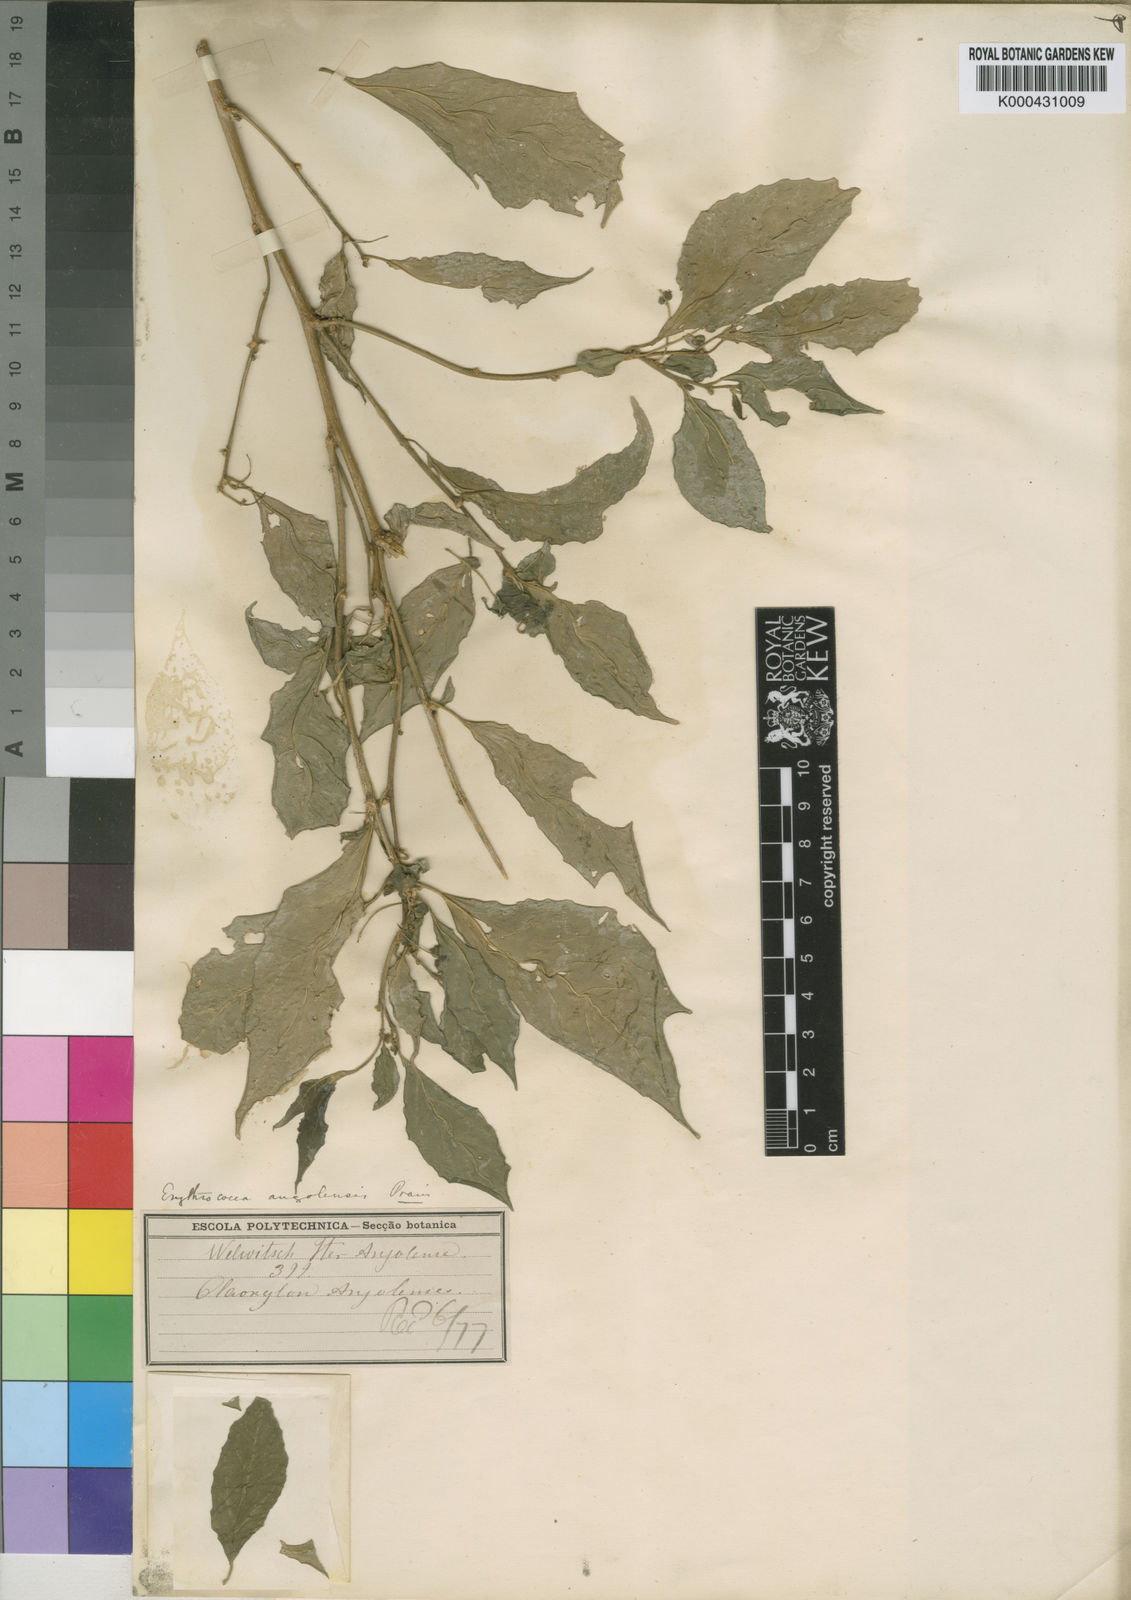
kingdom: Plantae
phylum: Tracheophyta
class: Magnoliopsida
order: Malpighiales
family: Euphorbiaceae
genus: Erythrococca
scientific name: Erythrococca
